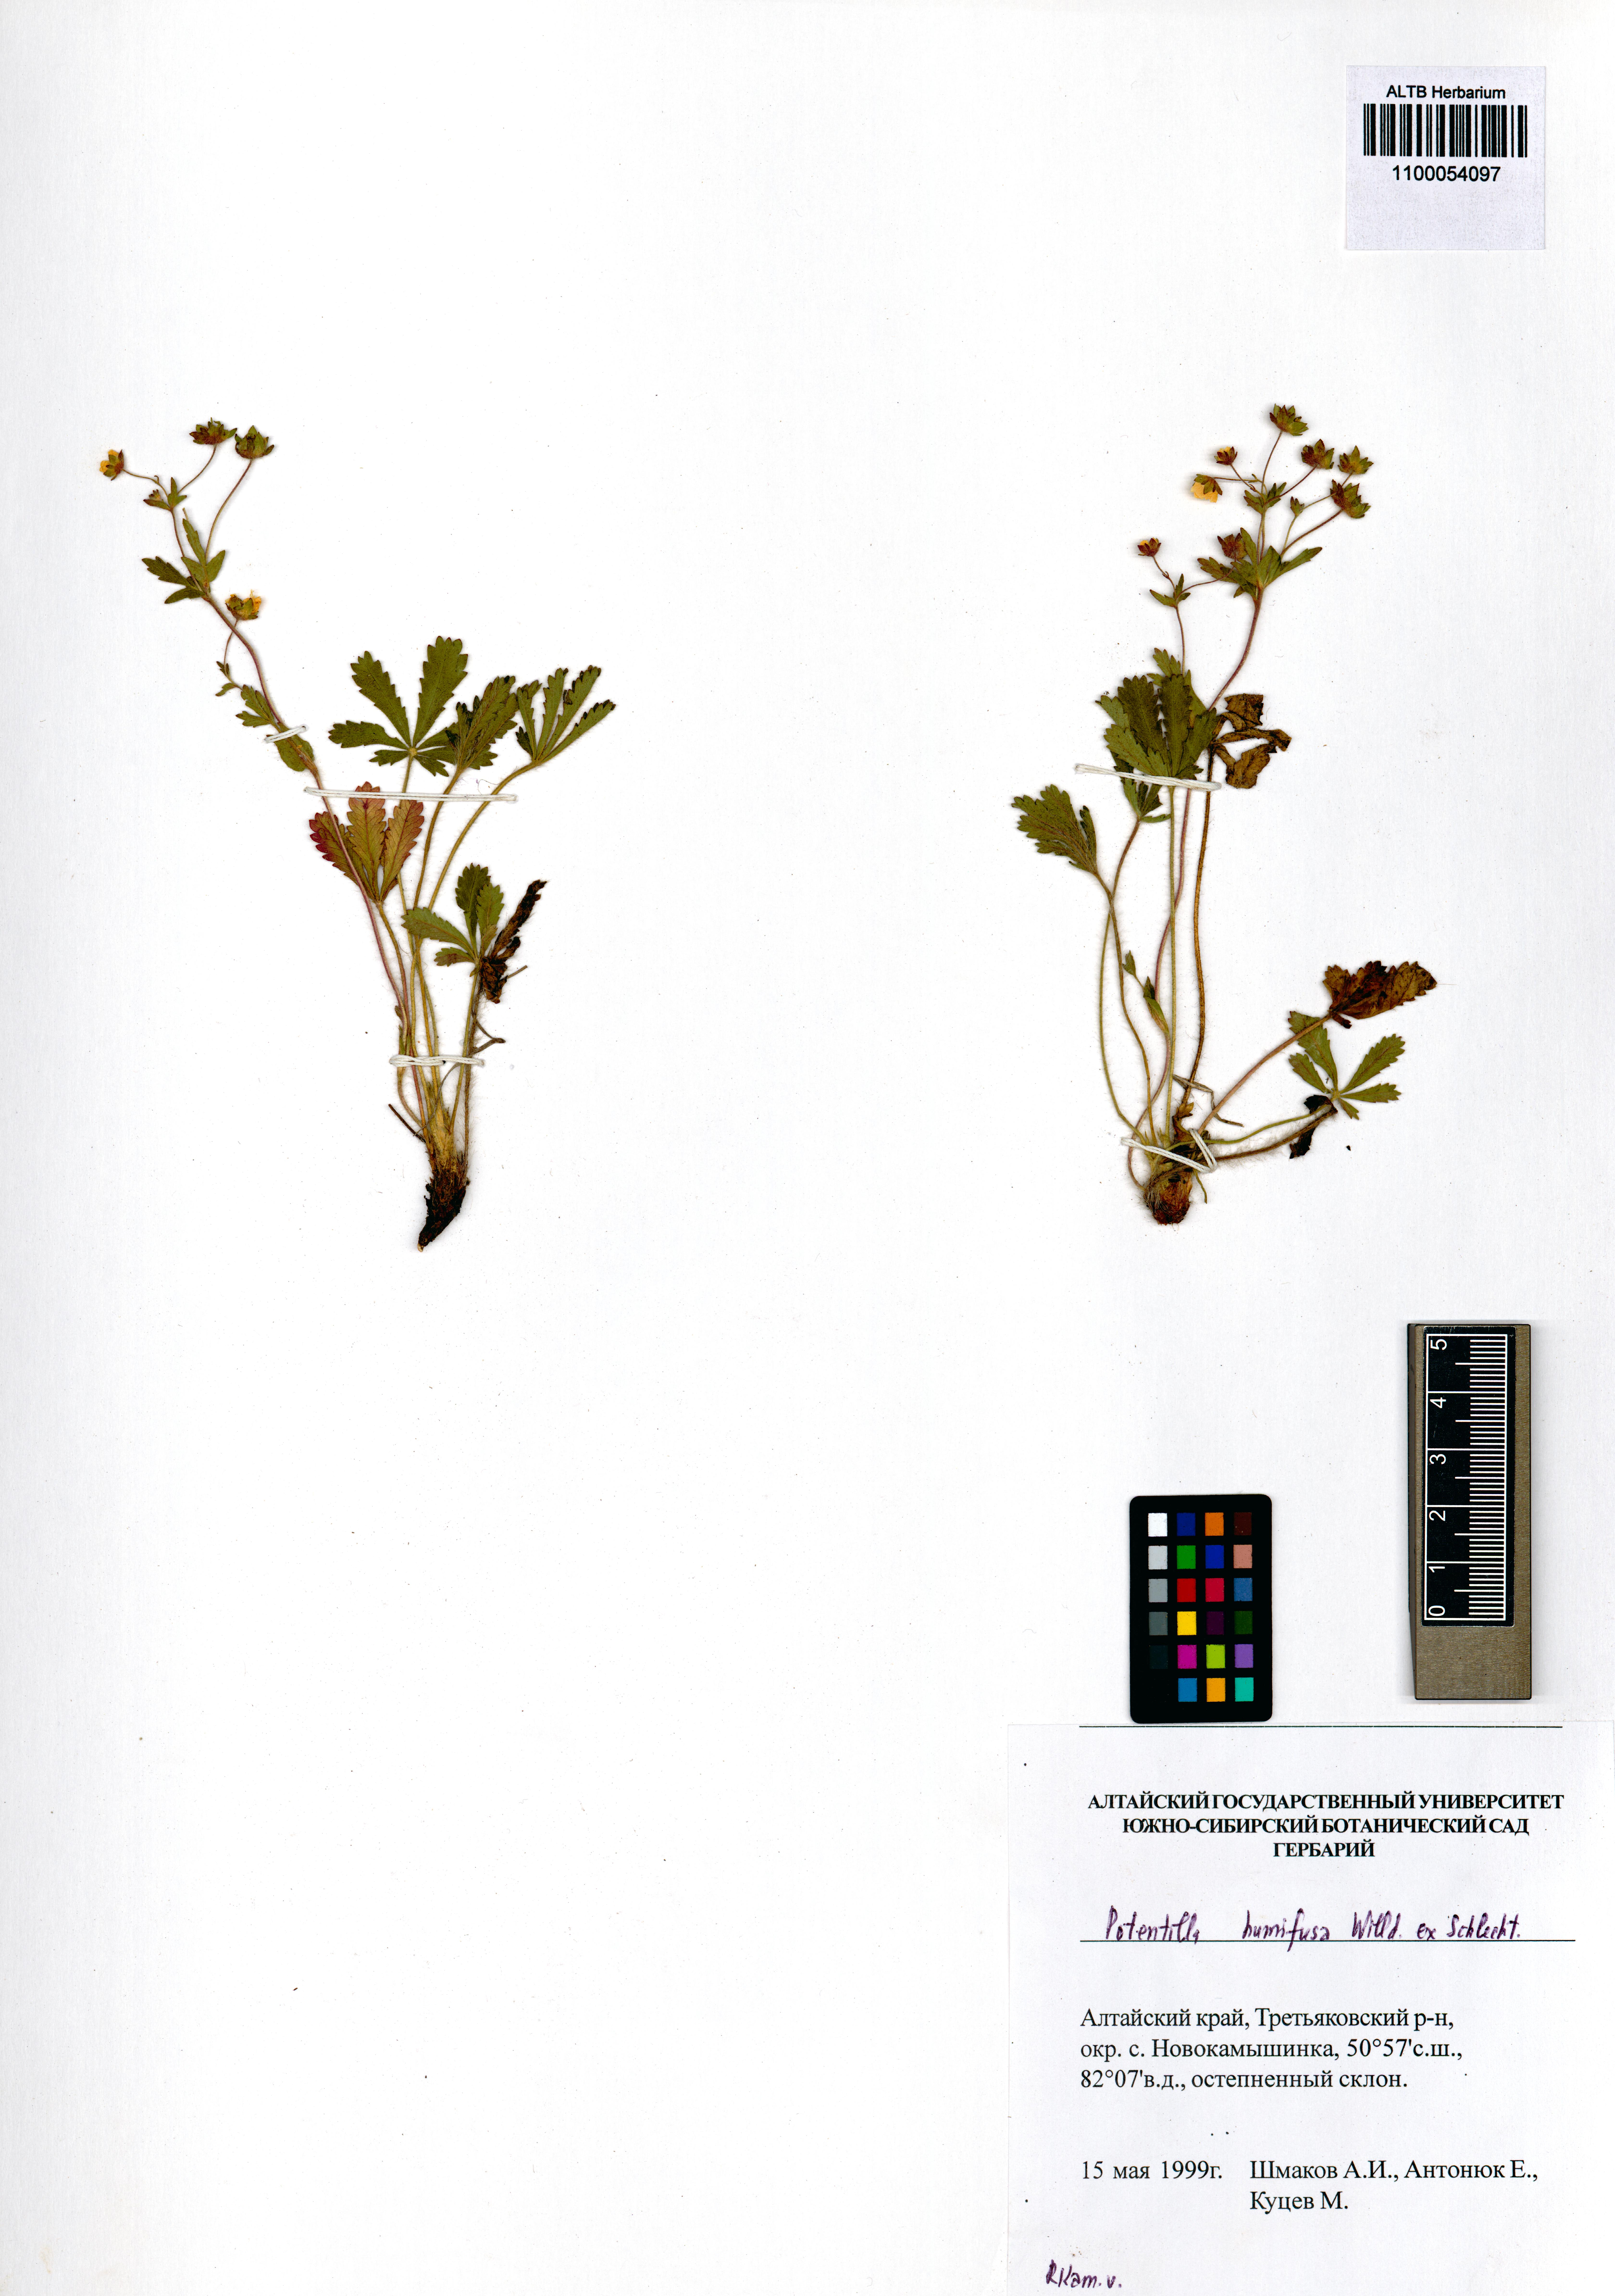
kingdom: Plantae
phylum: Tracheophyta
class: Magnoliopsida
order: Rosales
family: Rosaceae
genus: Potentilla
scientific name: Potentilla humifusa
